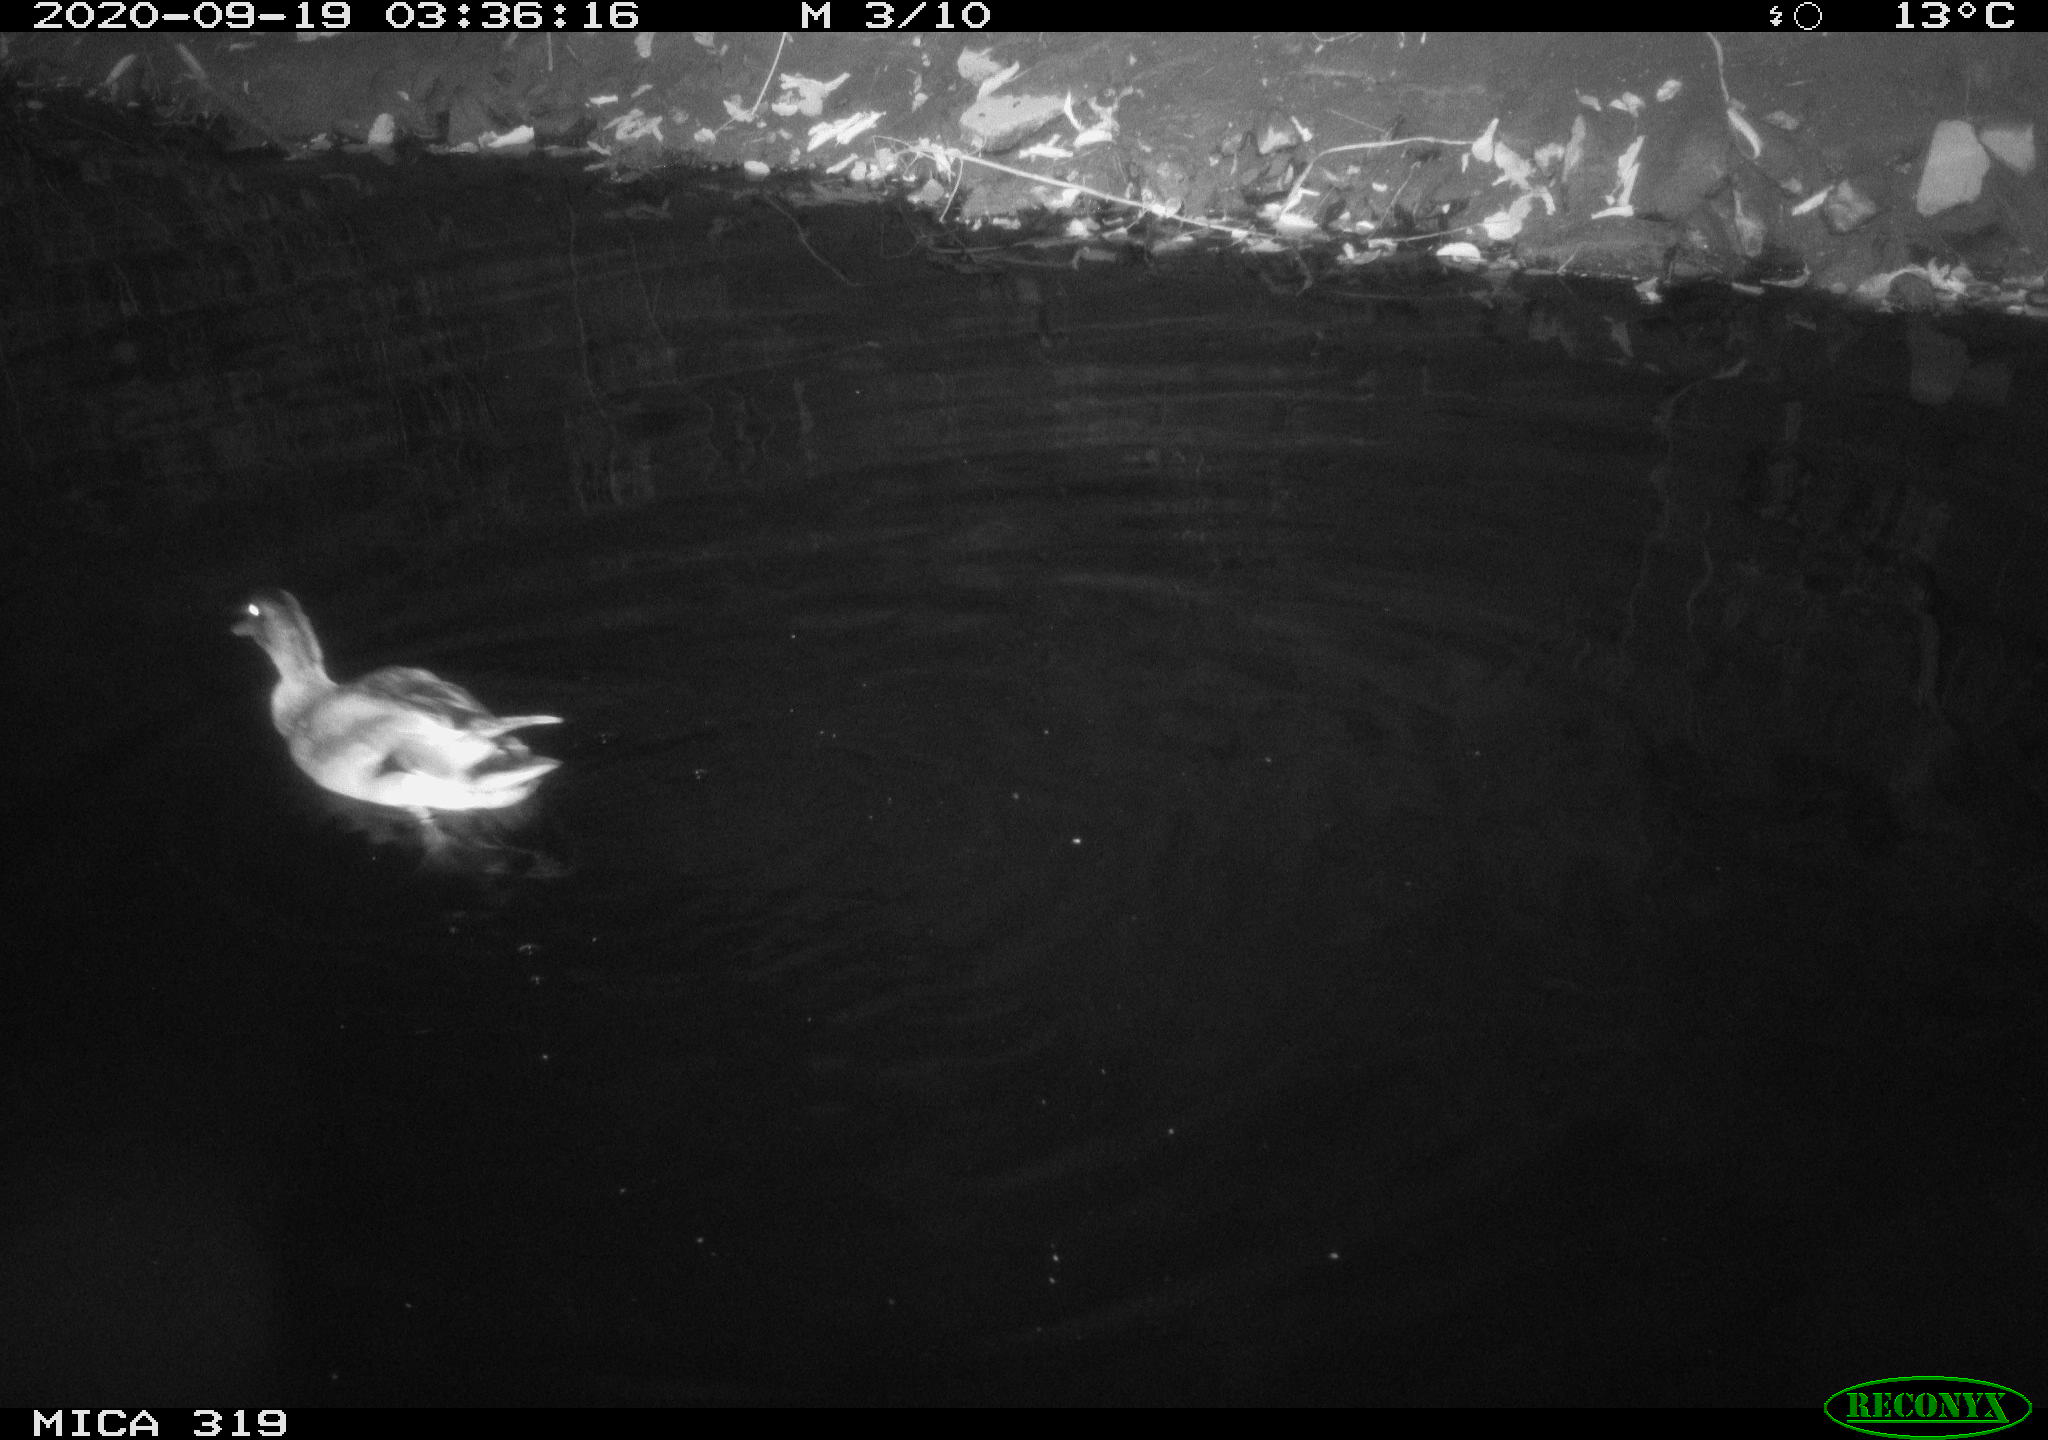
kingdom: Animalia
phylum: Chordata
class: Aves
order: Anseriformes
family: Anatidae
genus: Anas
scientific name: Anas platyrhynchos
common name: Mallard
